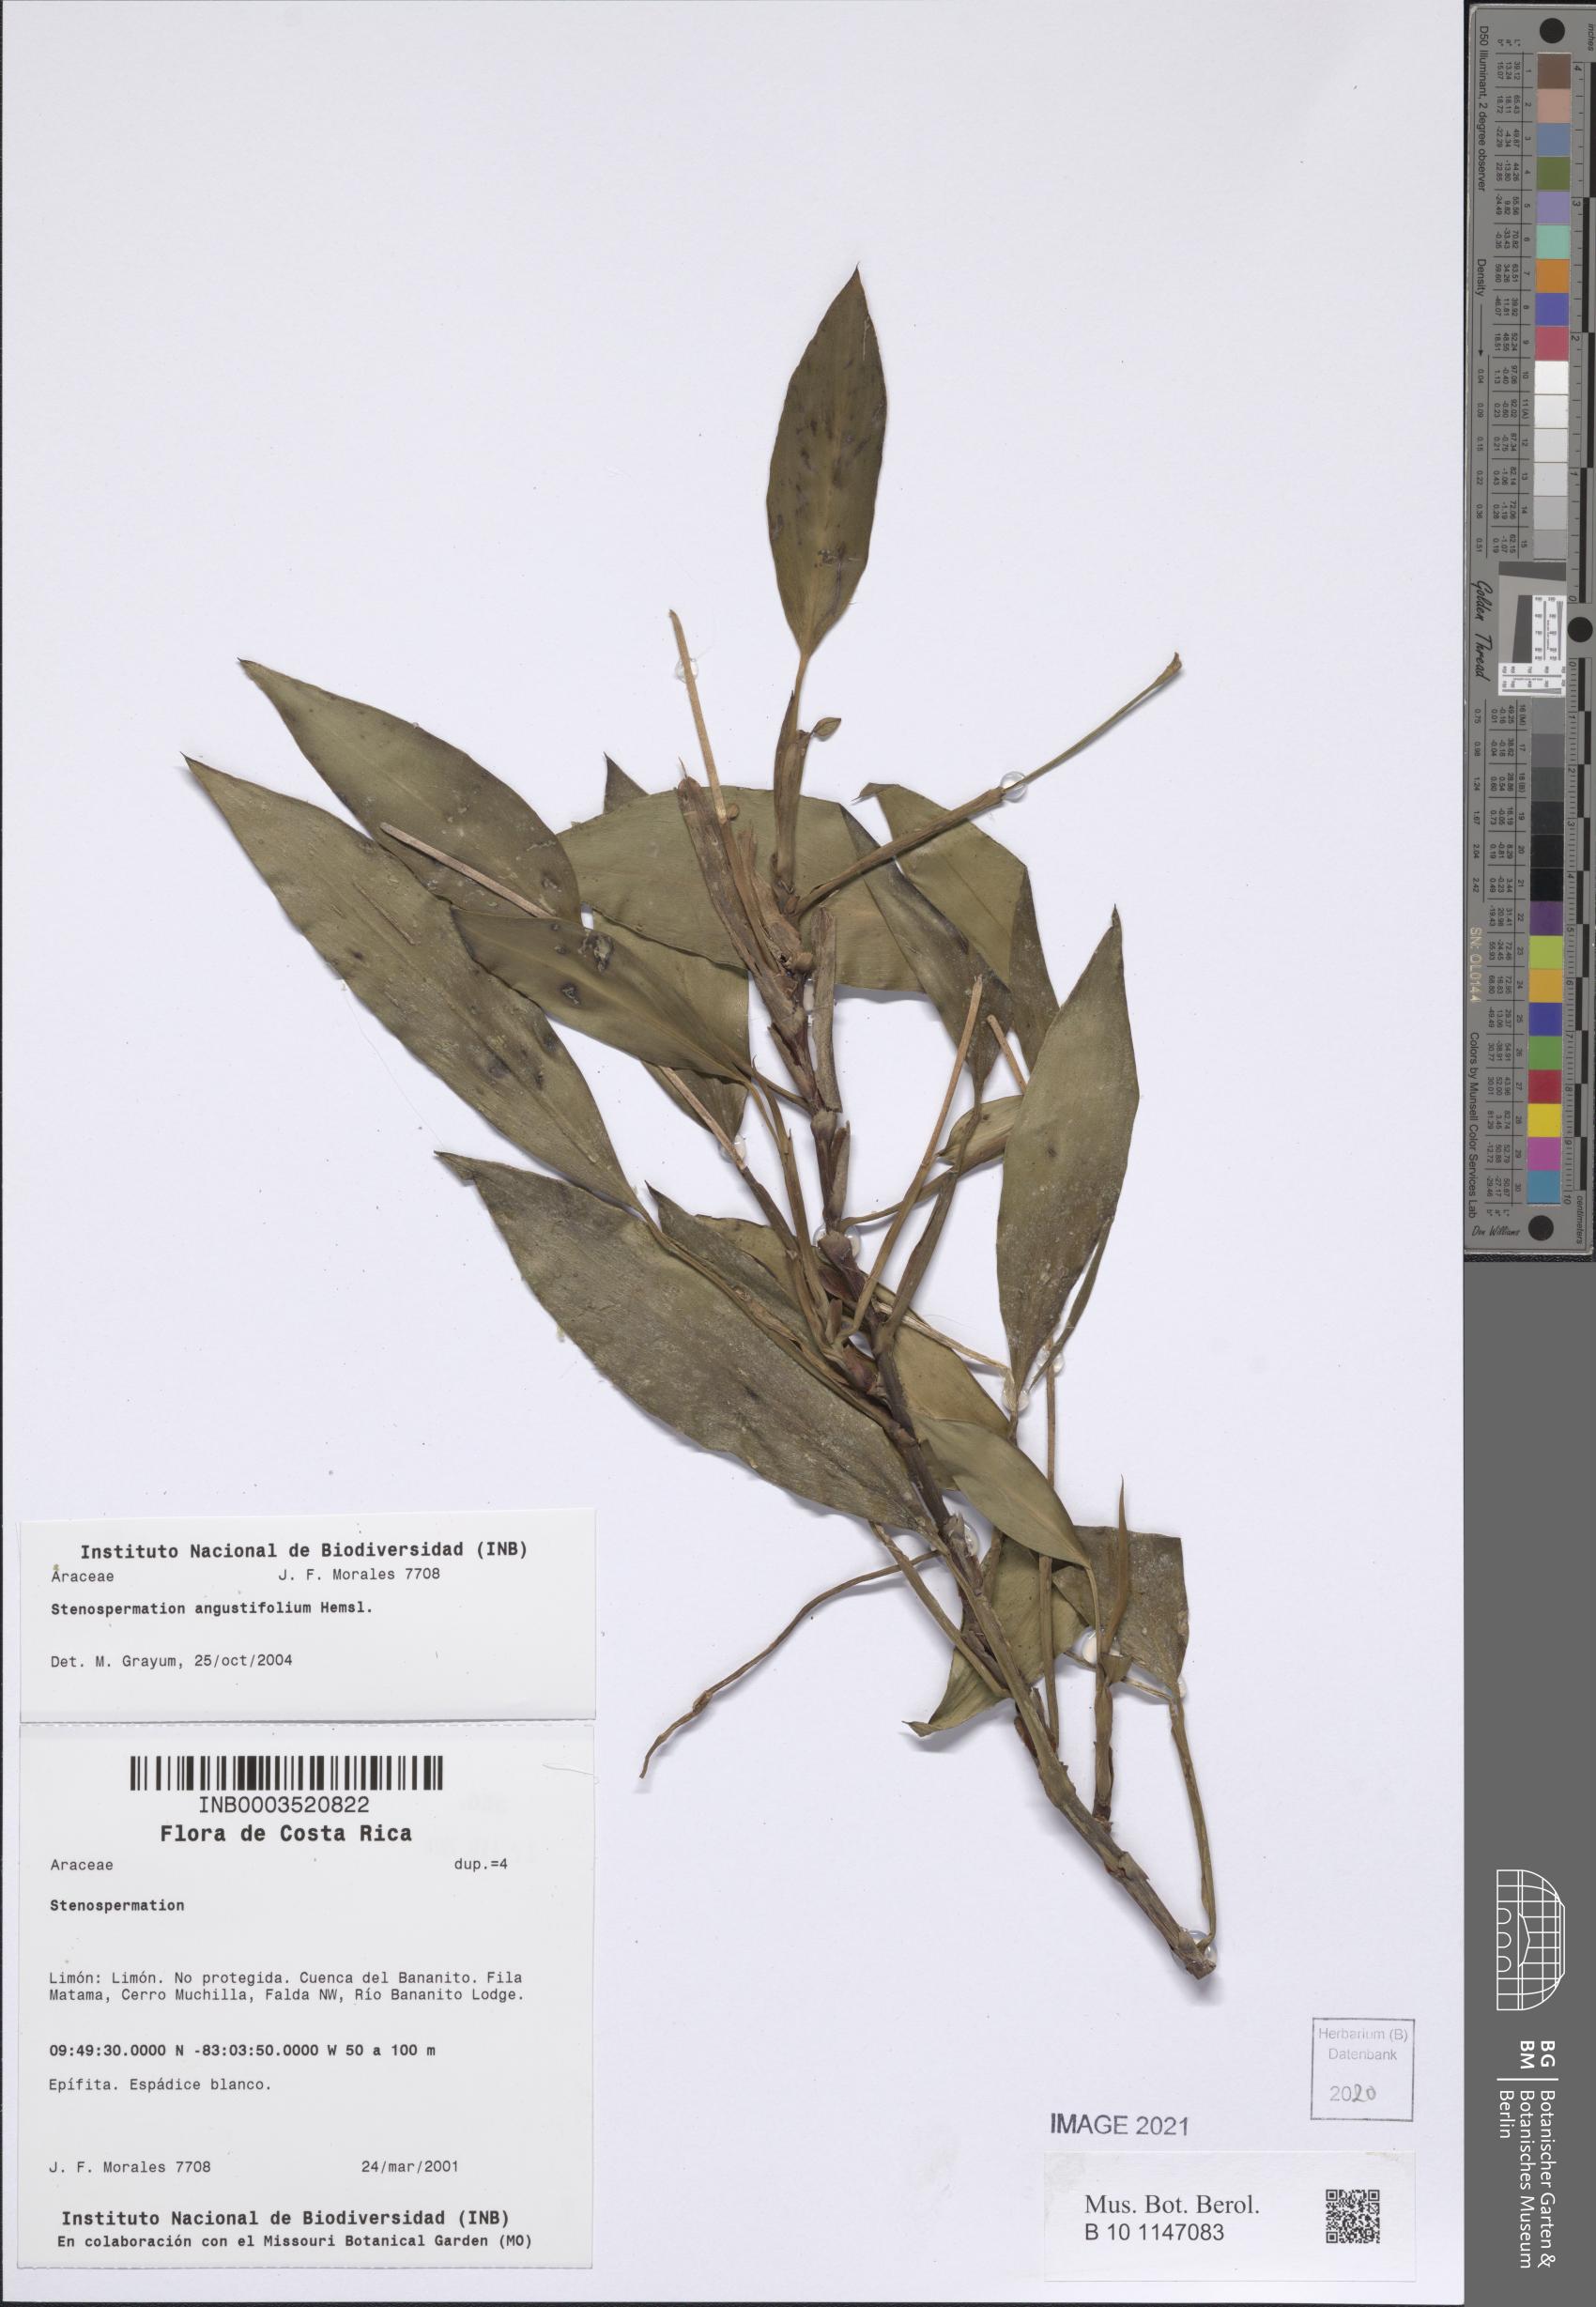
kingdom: Plantae
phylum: Tracheophyta
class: Liliopsida
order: Alismatales
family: Araceae
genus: Stenospermation
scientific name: Stenospermation angustifolium
